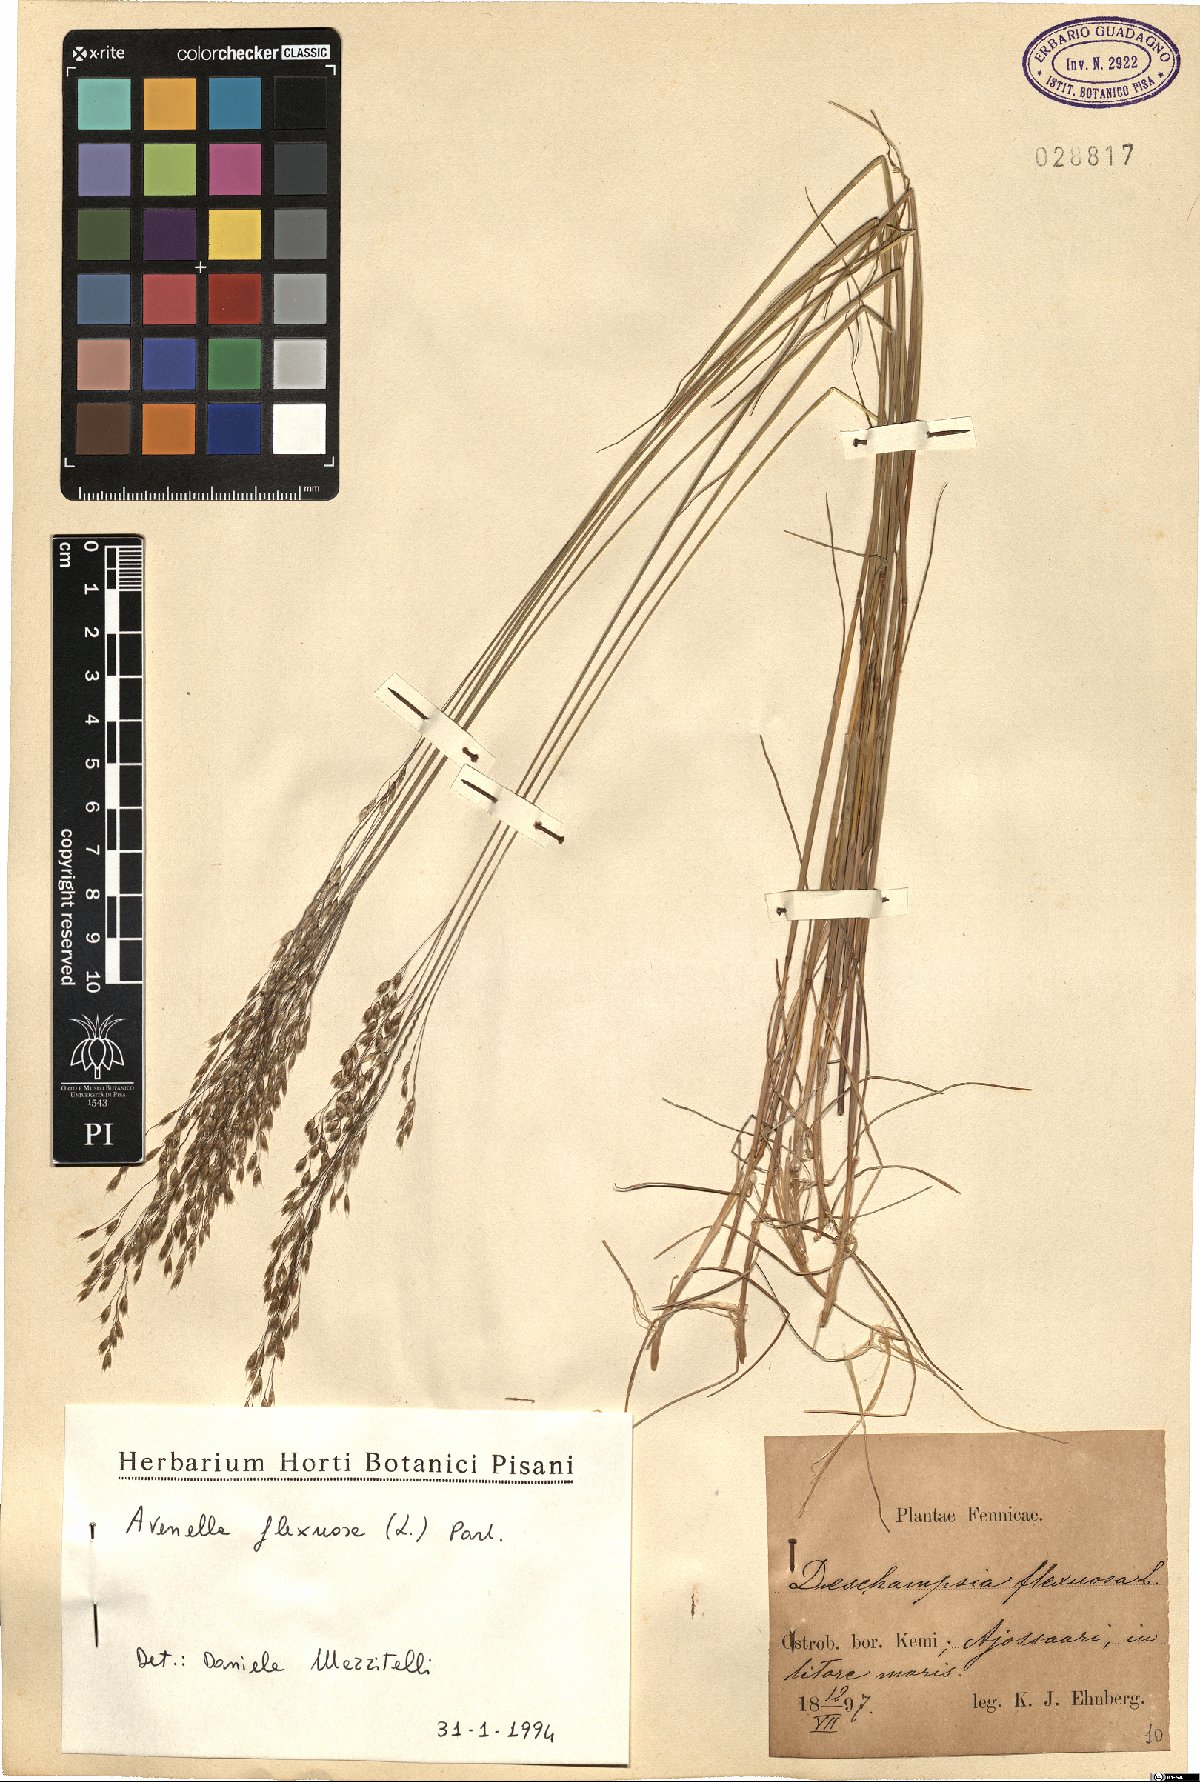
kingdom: Plantae
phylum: Tracheophyta
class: Liliopsida
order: Poales
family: Poaceae
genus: Avenella
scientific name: Avenella flexuosa
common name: Wavy hairgrass
